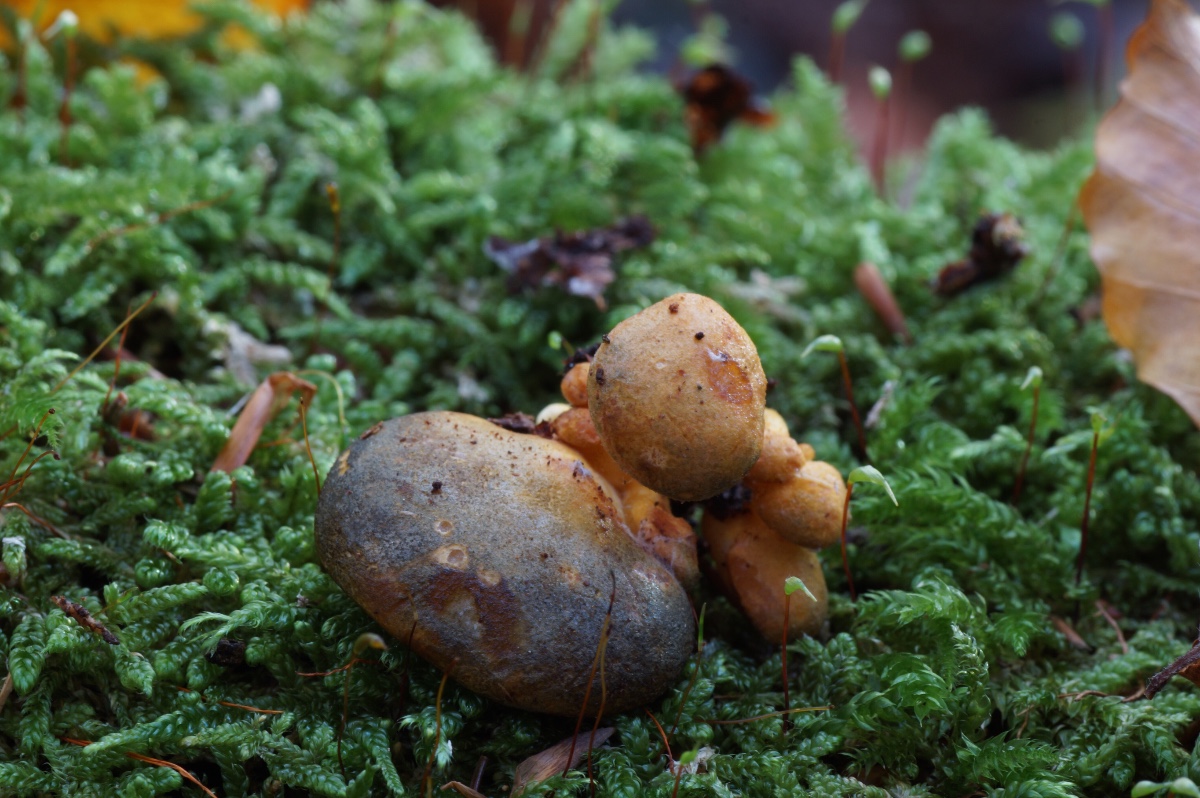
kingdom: Fungi
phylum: Basidiomycota
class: Agaricomycetes
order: Agaricales
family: Sarcomyxaceae
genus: Sarcomyxa
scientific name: Sarcomyxa serotina
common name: gummihat
